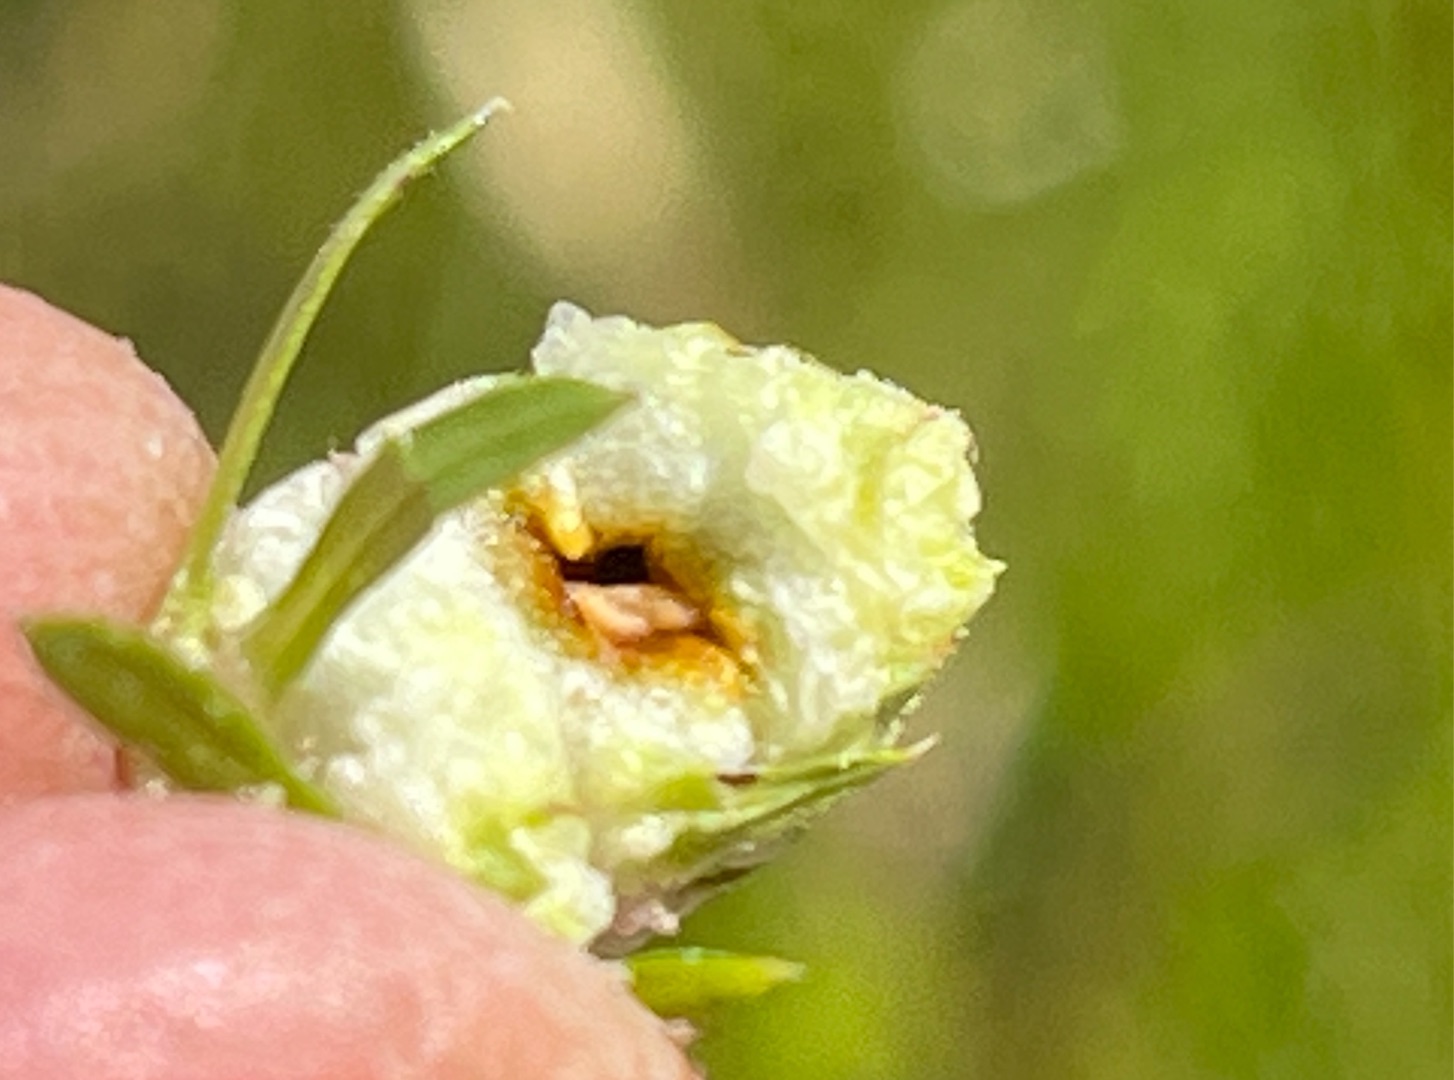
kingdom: Animalia
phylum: Arthropoda
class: Insecta
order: Diptera
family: Cecidomyiidae
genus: Dasineura
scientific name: Dasineura galiicola
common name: Sumpsnerregalmyg
